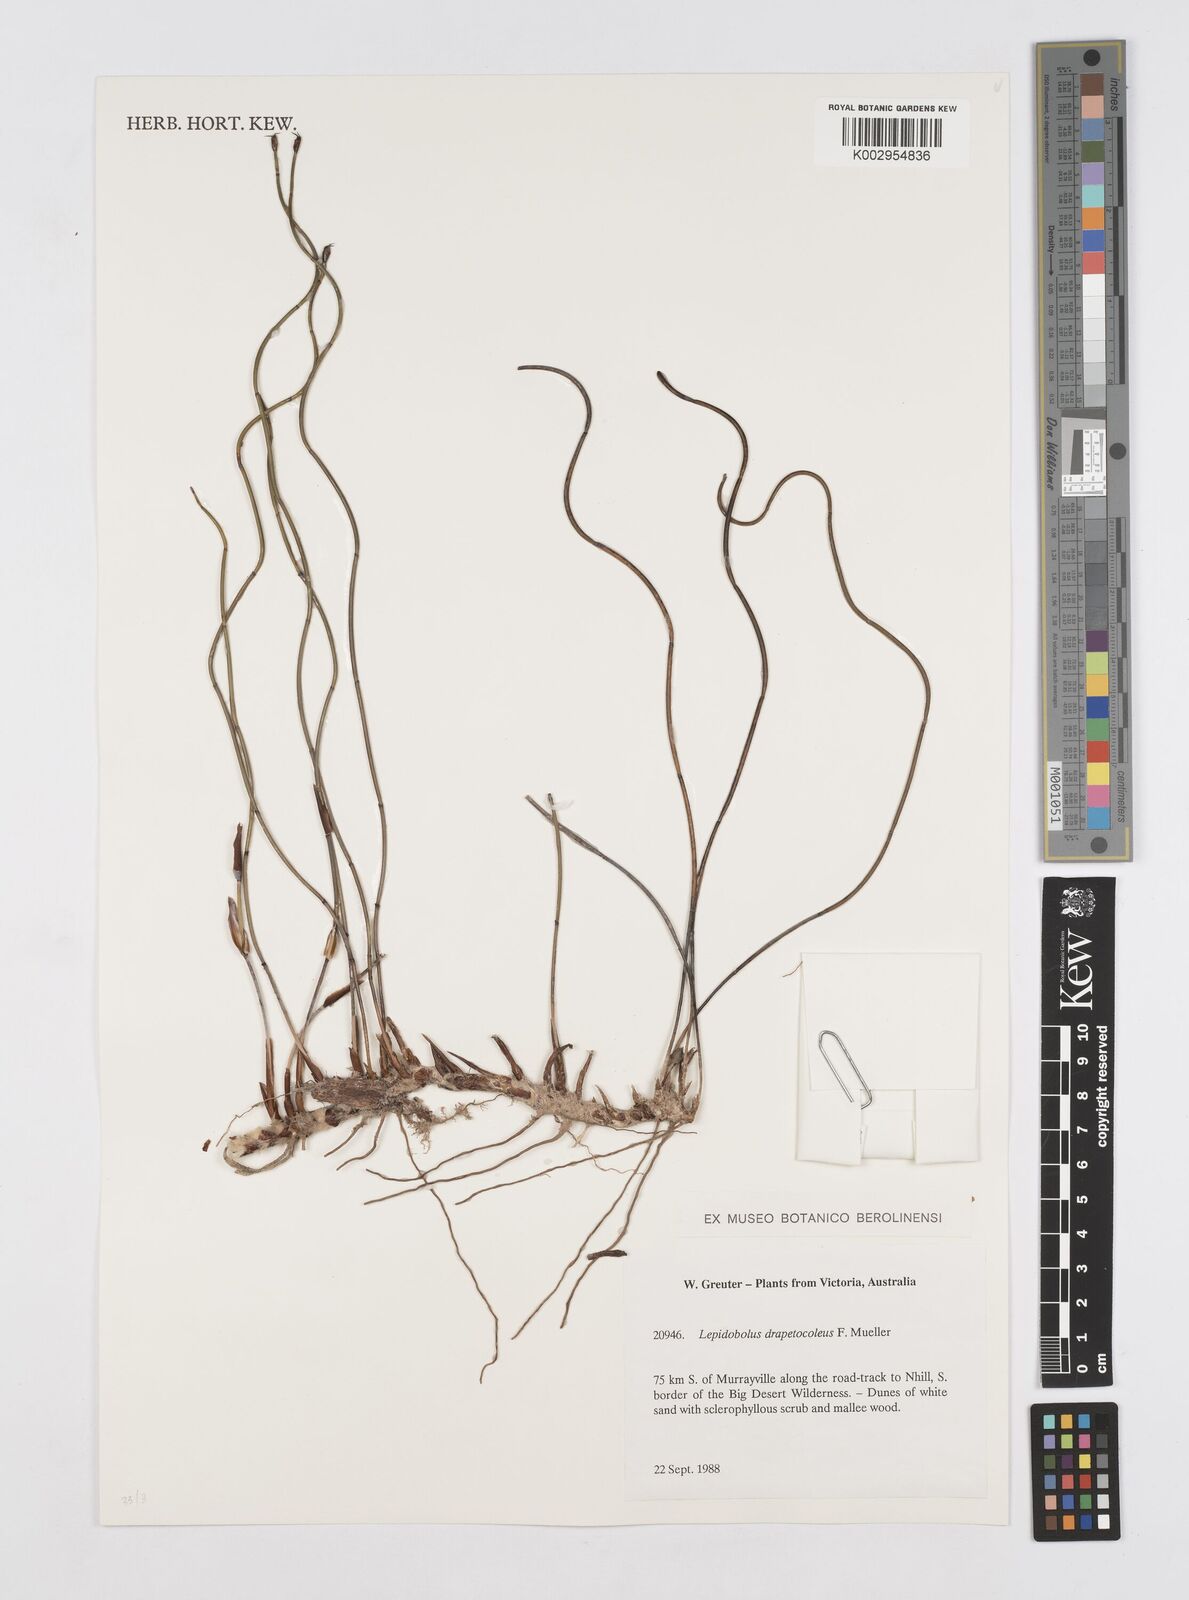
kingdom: Plantae
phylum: Tracheophyta
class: Liliopsida
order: Poales
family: Restionaceae
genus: Lepidobolus
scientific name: Lepidobolus drapetocoleus
